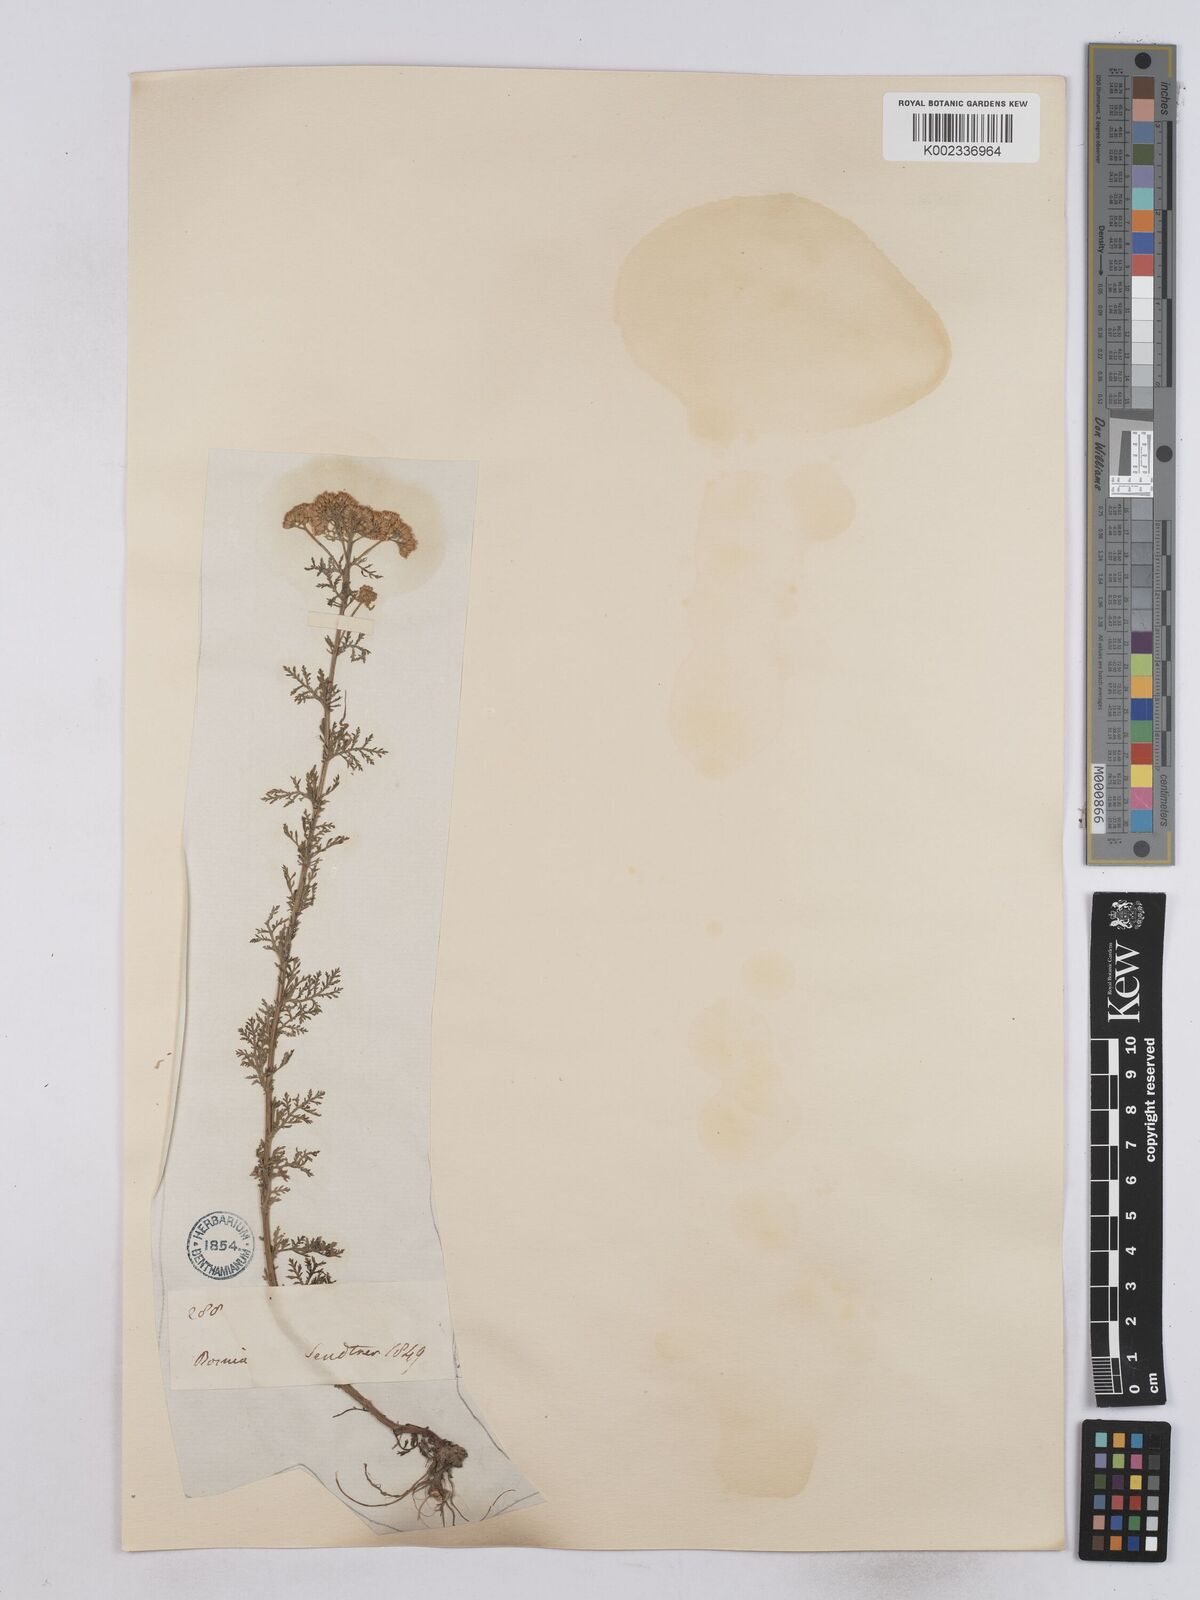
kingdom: Plantae
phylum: Tracheophyta
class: Magnoliopsida
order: Asterales
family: Asteraceae
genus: Achillea
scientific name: Achillea nobilis
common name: Noble yarrow
